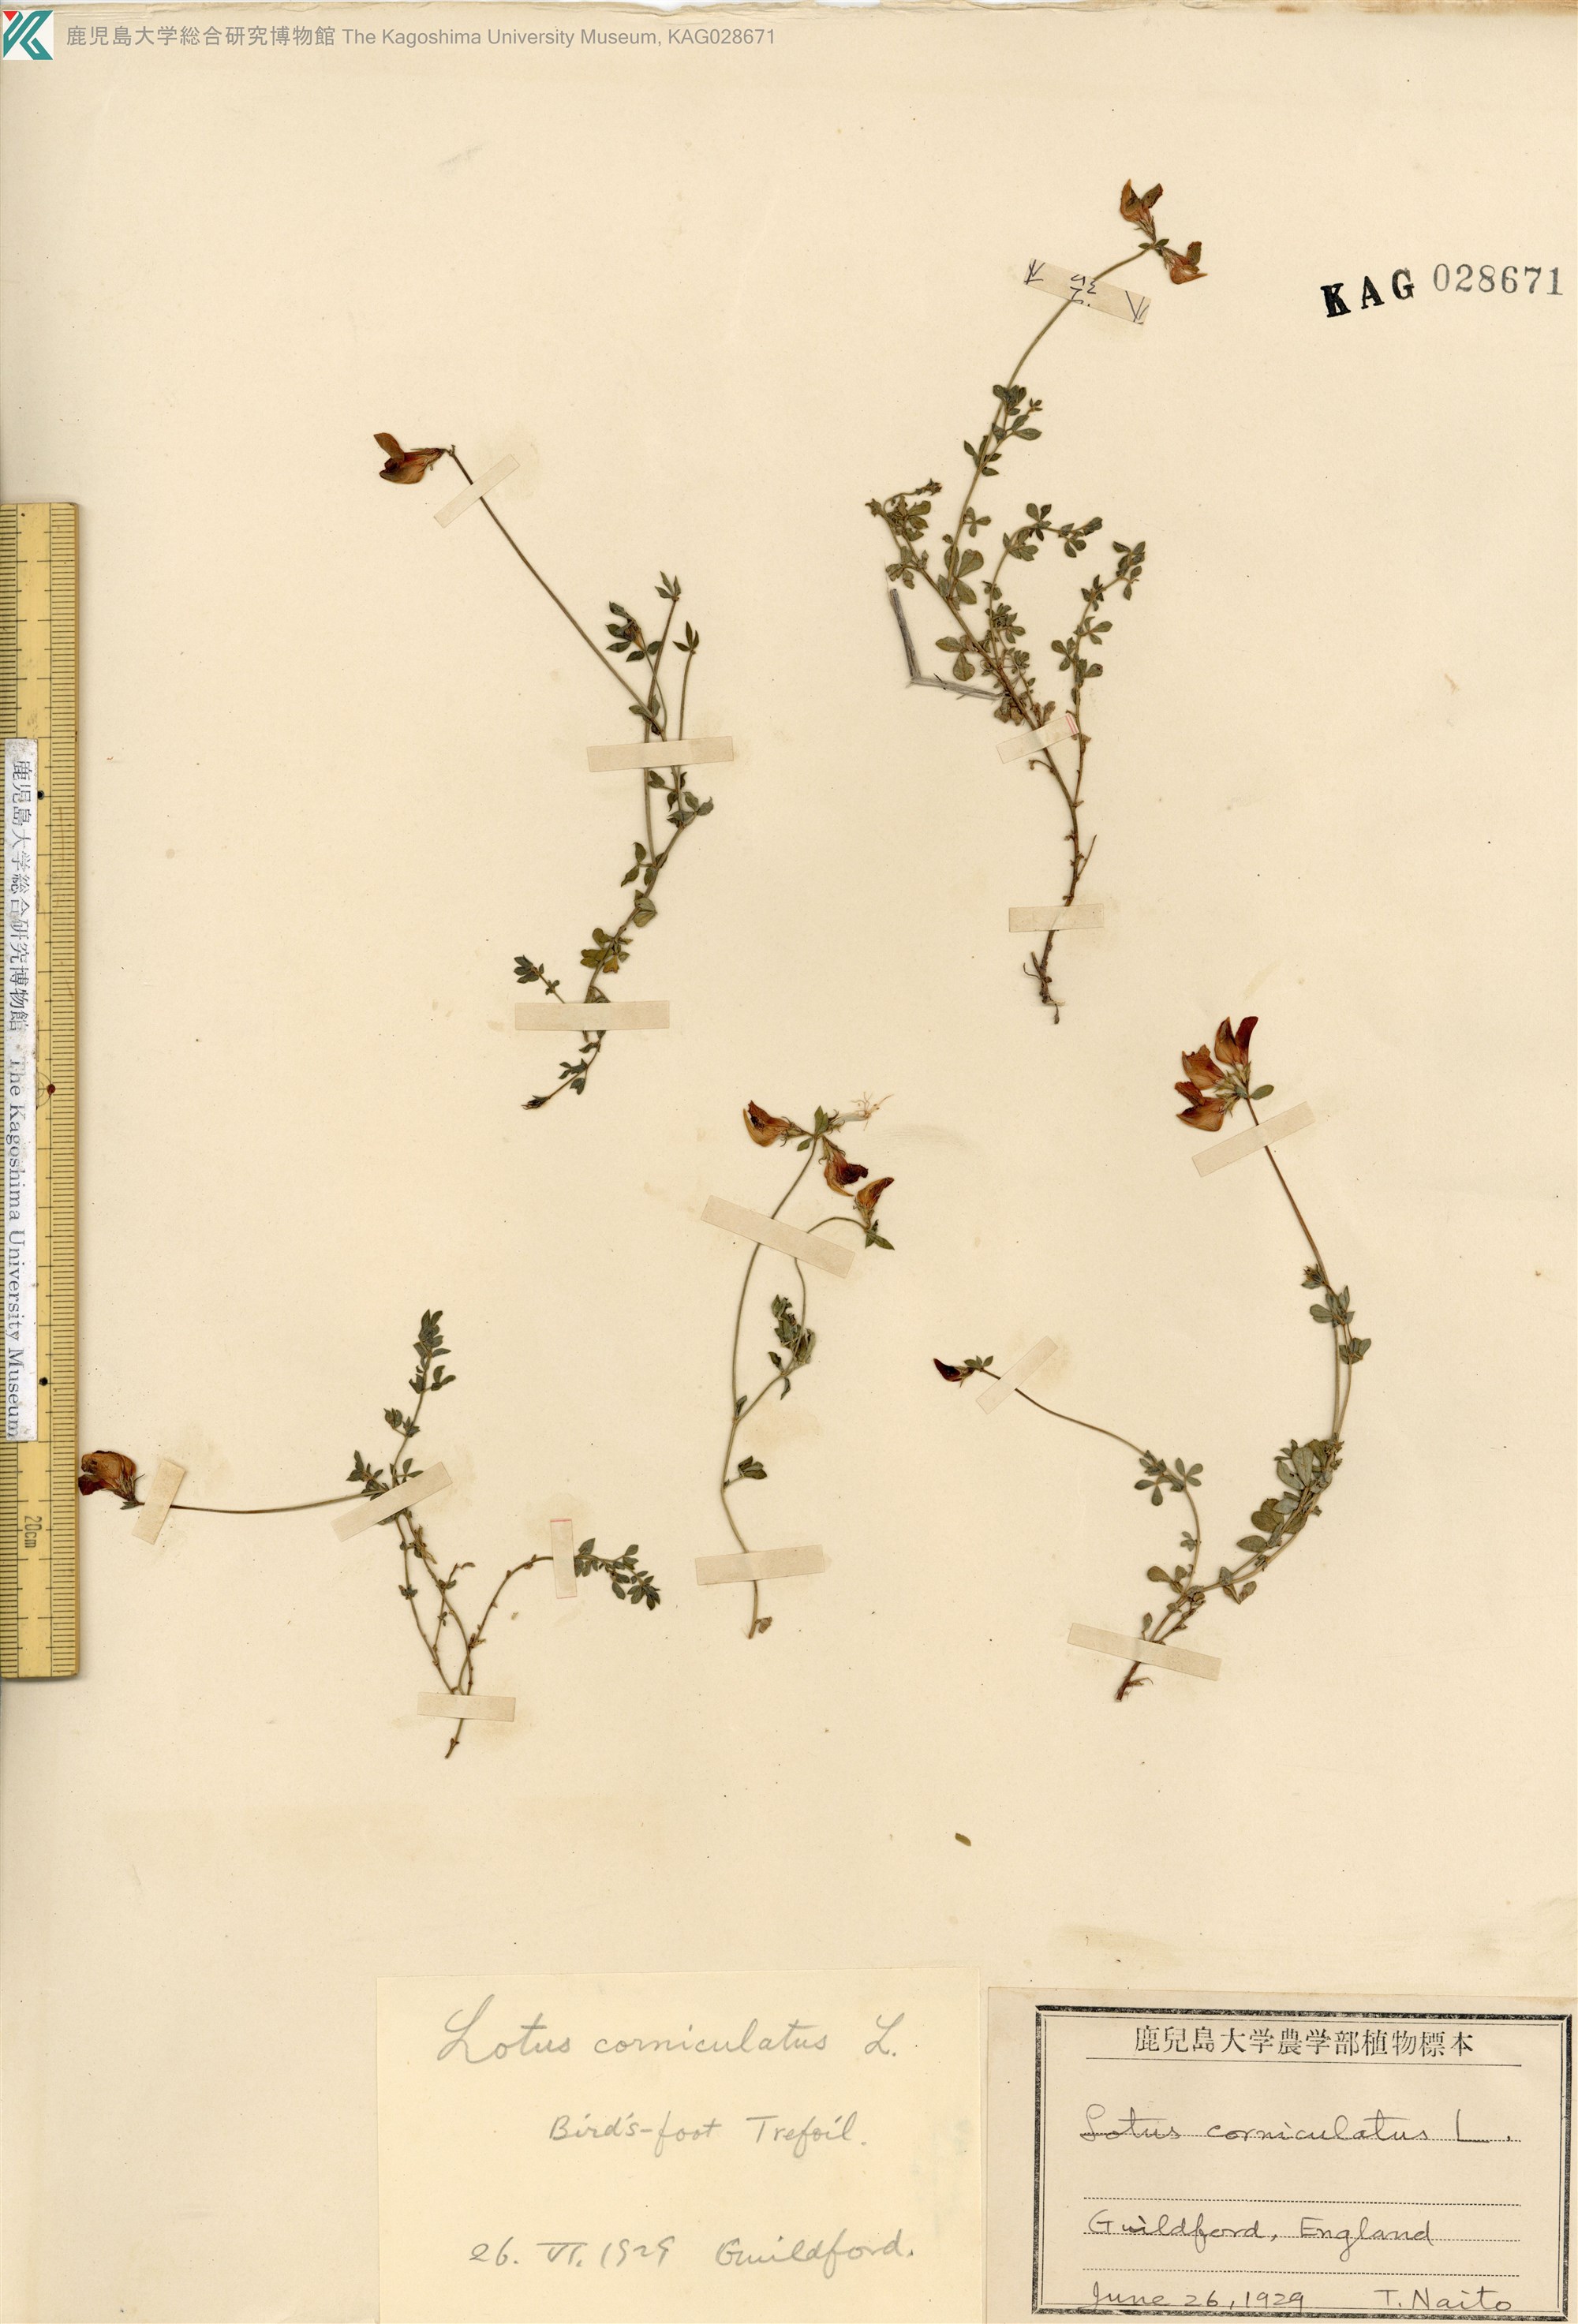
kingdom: Plantae
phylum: Tracheophyta
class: Magnoliopsida
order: Fabales
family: Fabaceae
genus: Lotus
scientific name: Lotus corniculatus
